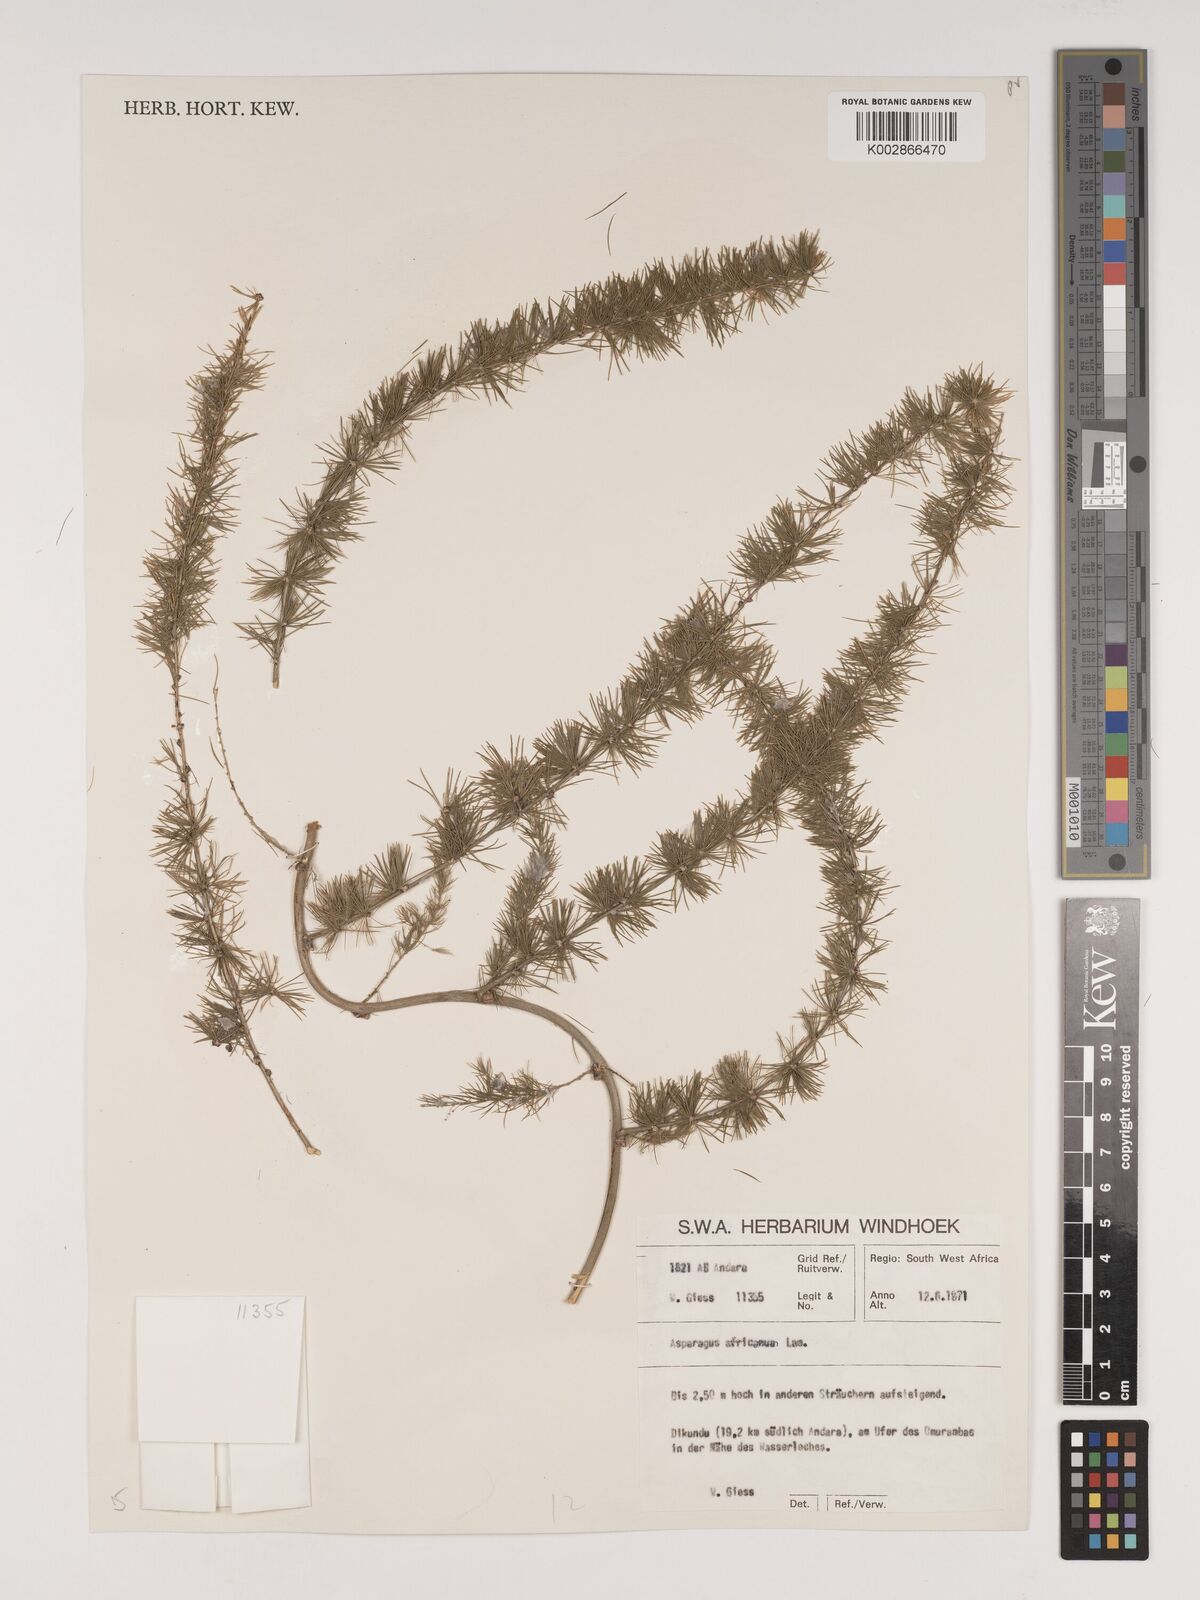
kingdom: Plantae
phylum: Tracheophyta
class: Liliopsida
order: Asparagales
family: Asparagaceae
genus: Asparagus
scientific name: Asparagus africanus
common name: Asparagus-fern
